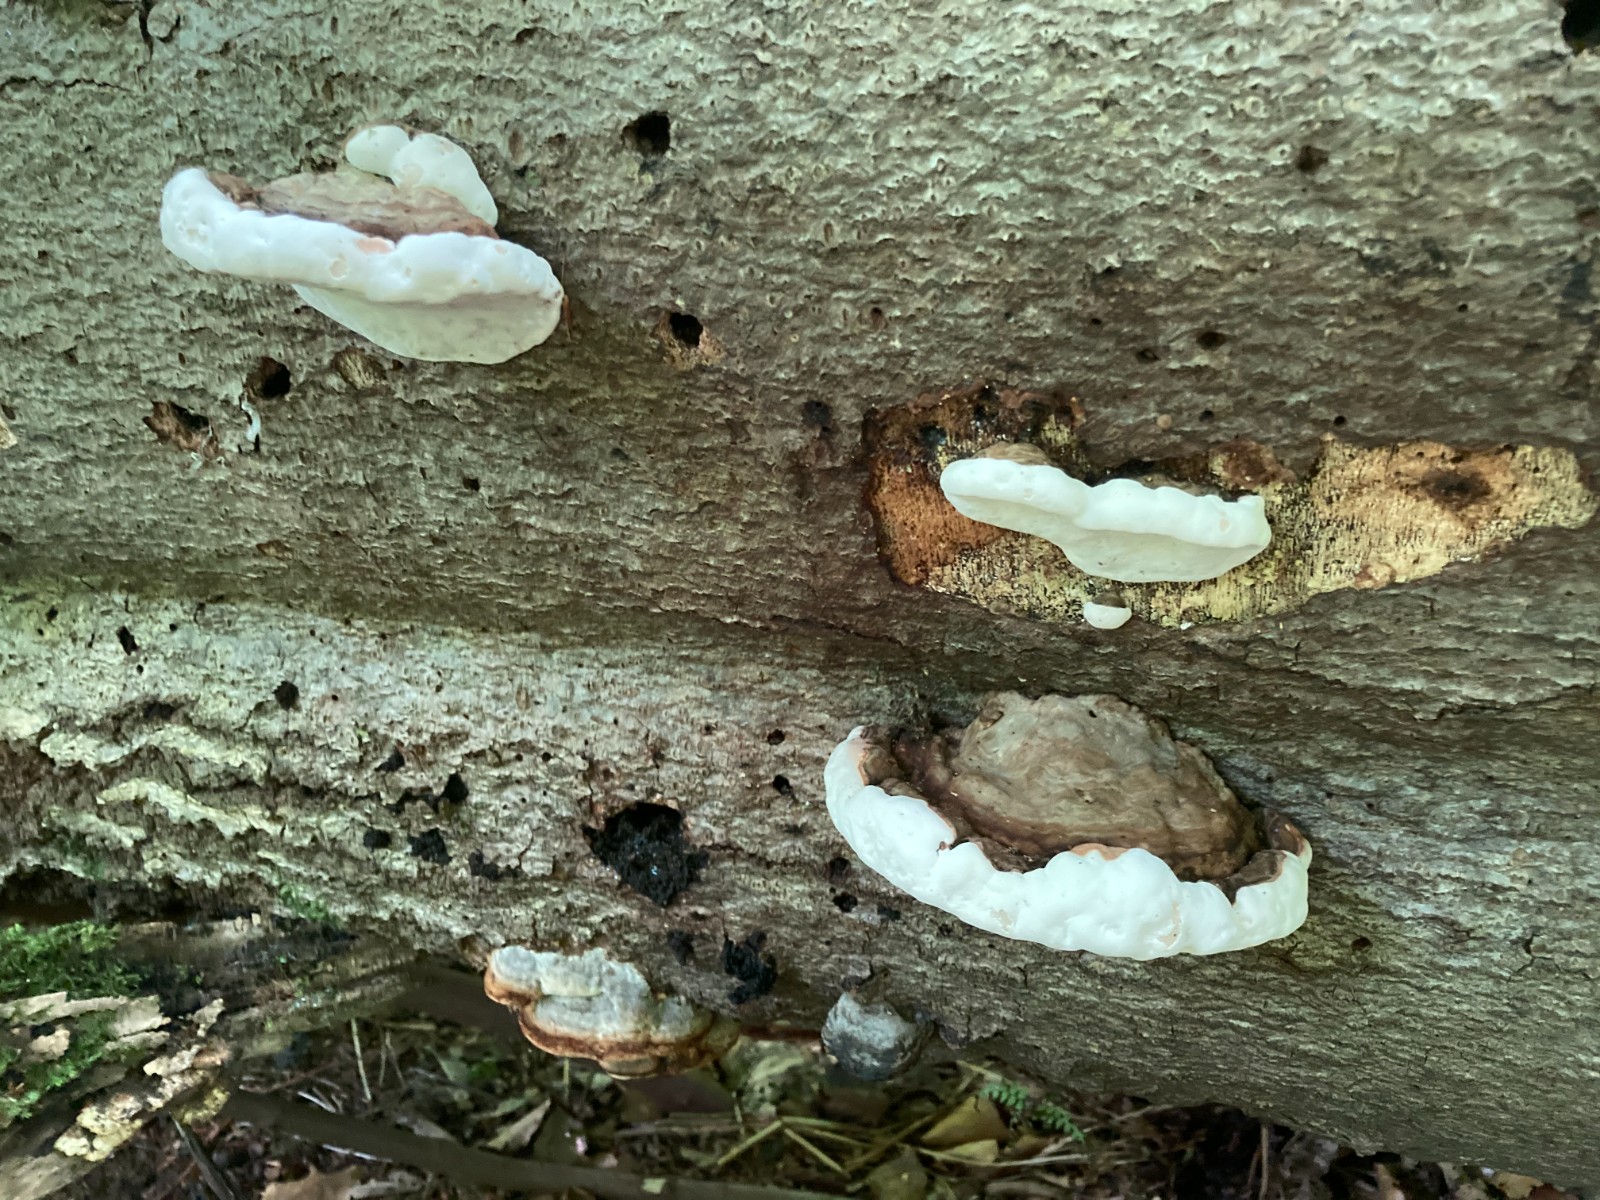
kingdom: Fungi
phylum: Basidiomycota
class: Agaricomycetes
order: Polyporales
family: Polyporaceae
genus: Ganoderma
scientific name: Ganoderma applanatum
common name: flad lakporesvamp
